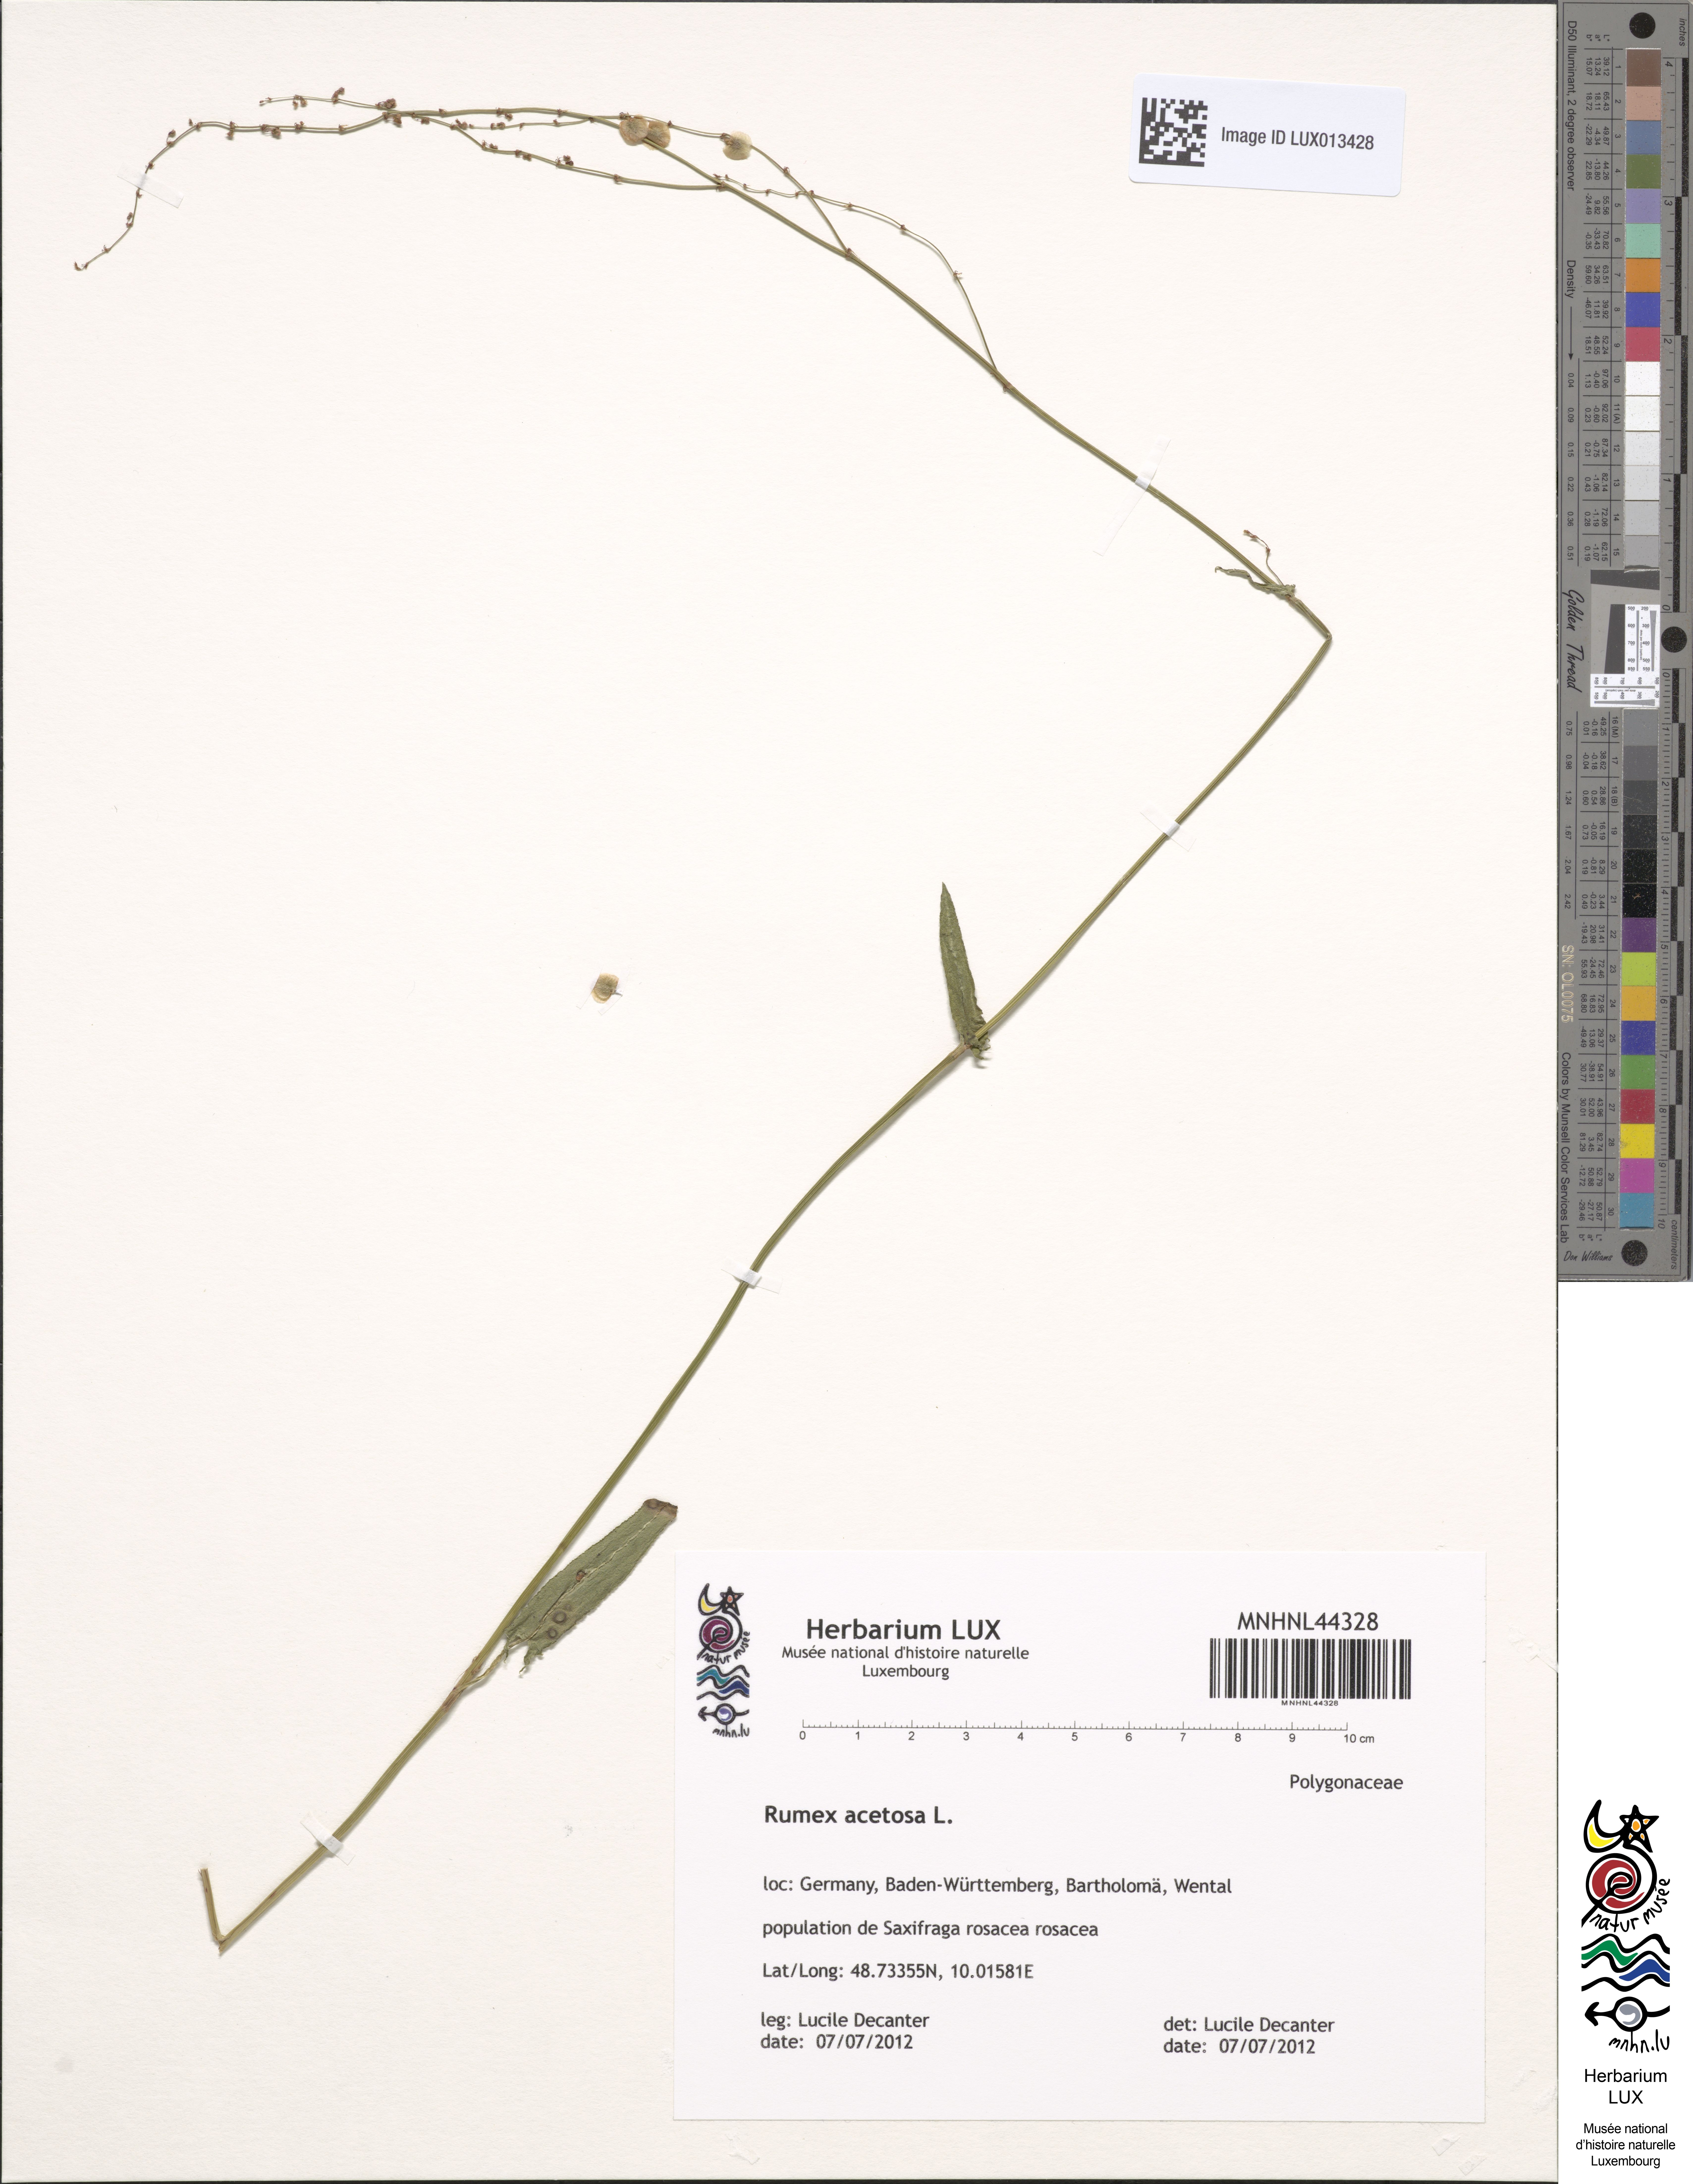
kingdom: Plantae
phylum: Tracheophyta
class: Magnoliopsida
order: Caryophyllales
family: Polygonaceae
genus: Rumex
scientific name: Rumex acetosa
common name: Garden sorrel
